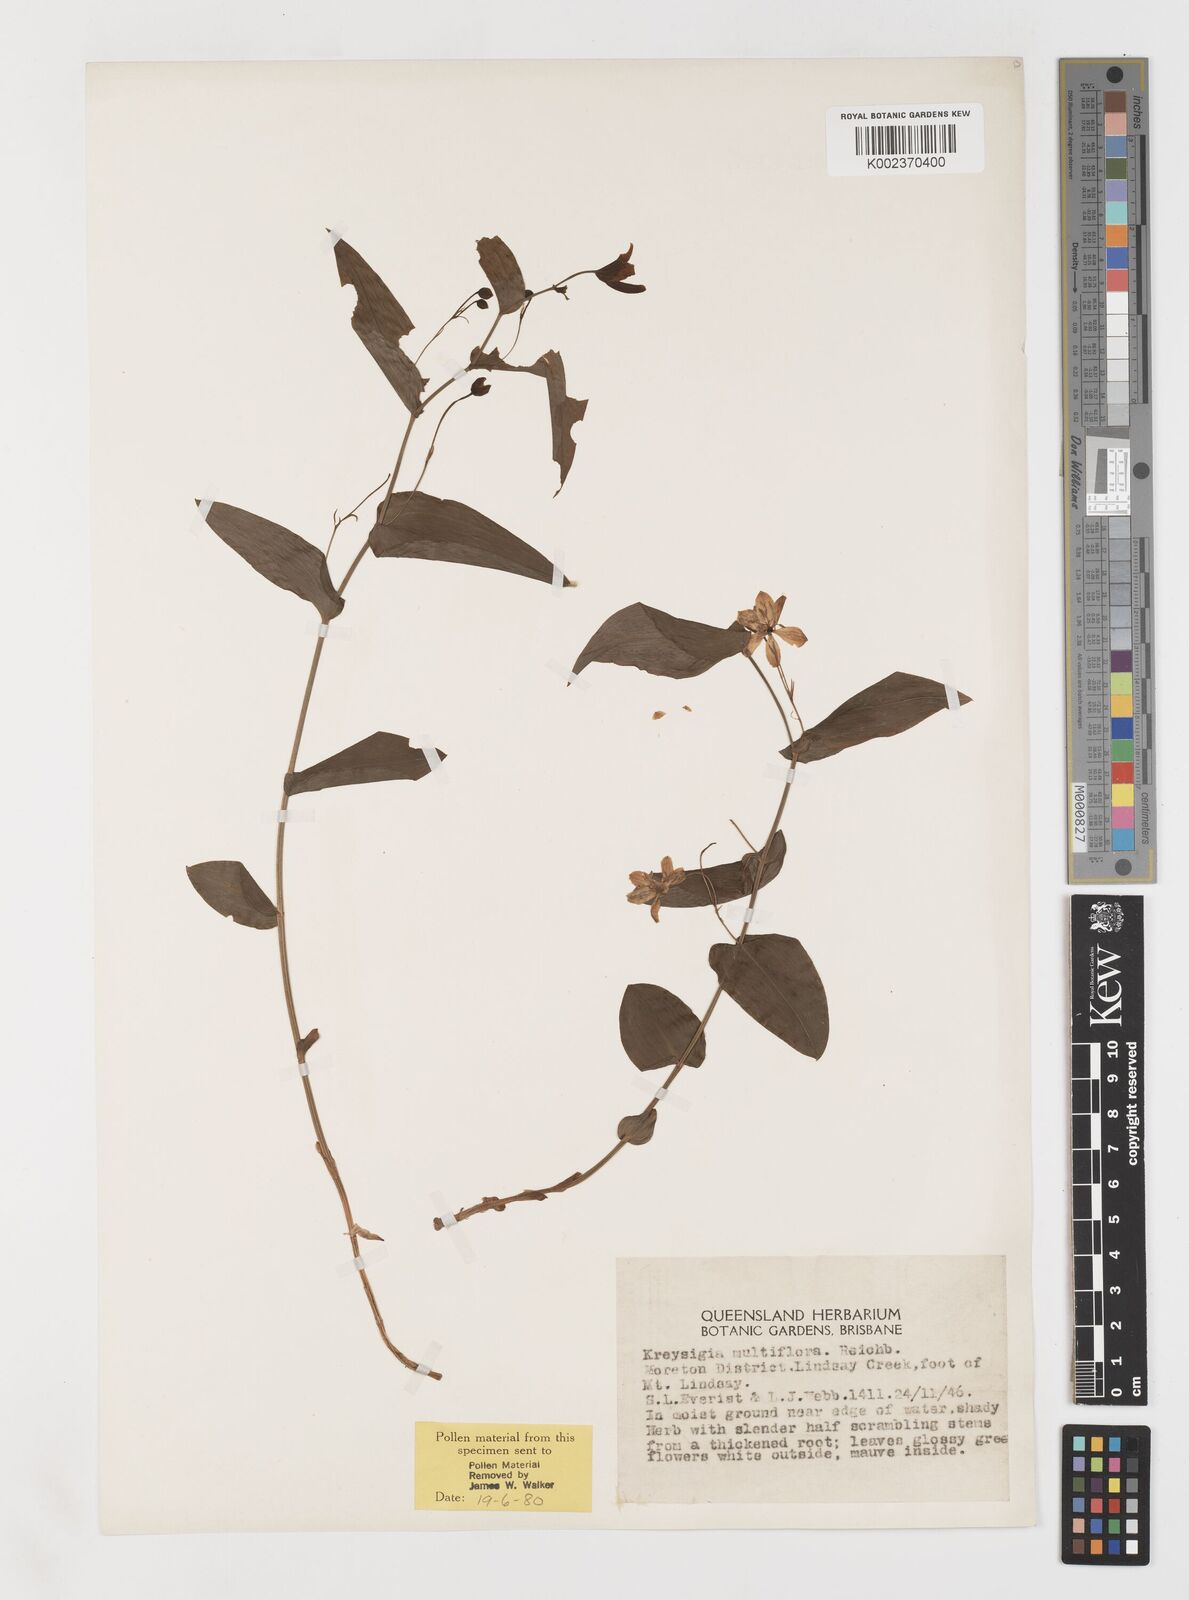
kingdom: Plantae
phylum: Tracheophyta
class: Liliopsida
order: Liliales
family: Colchicaceae
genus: Tripladenia
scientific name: Tripladenia
